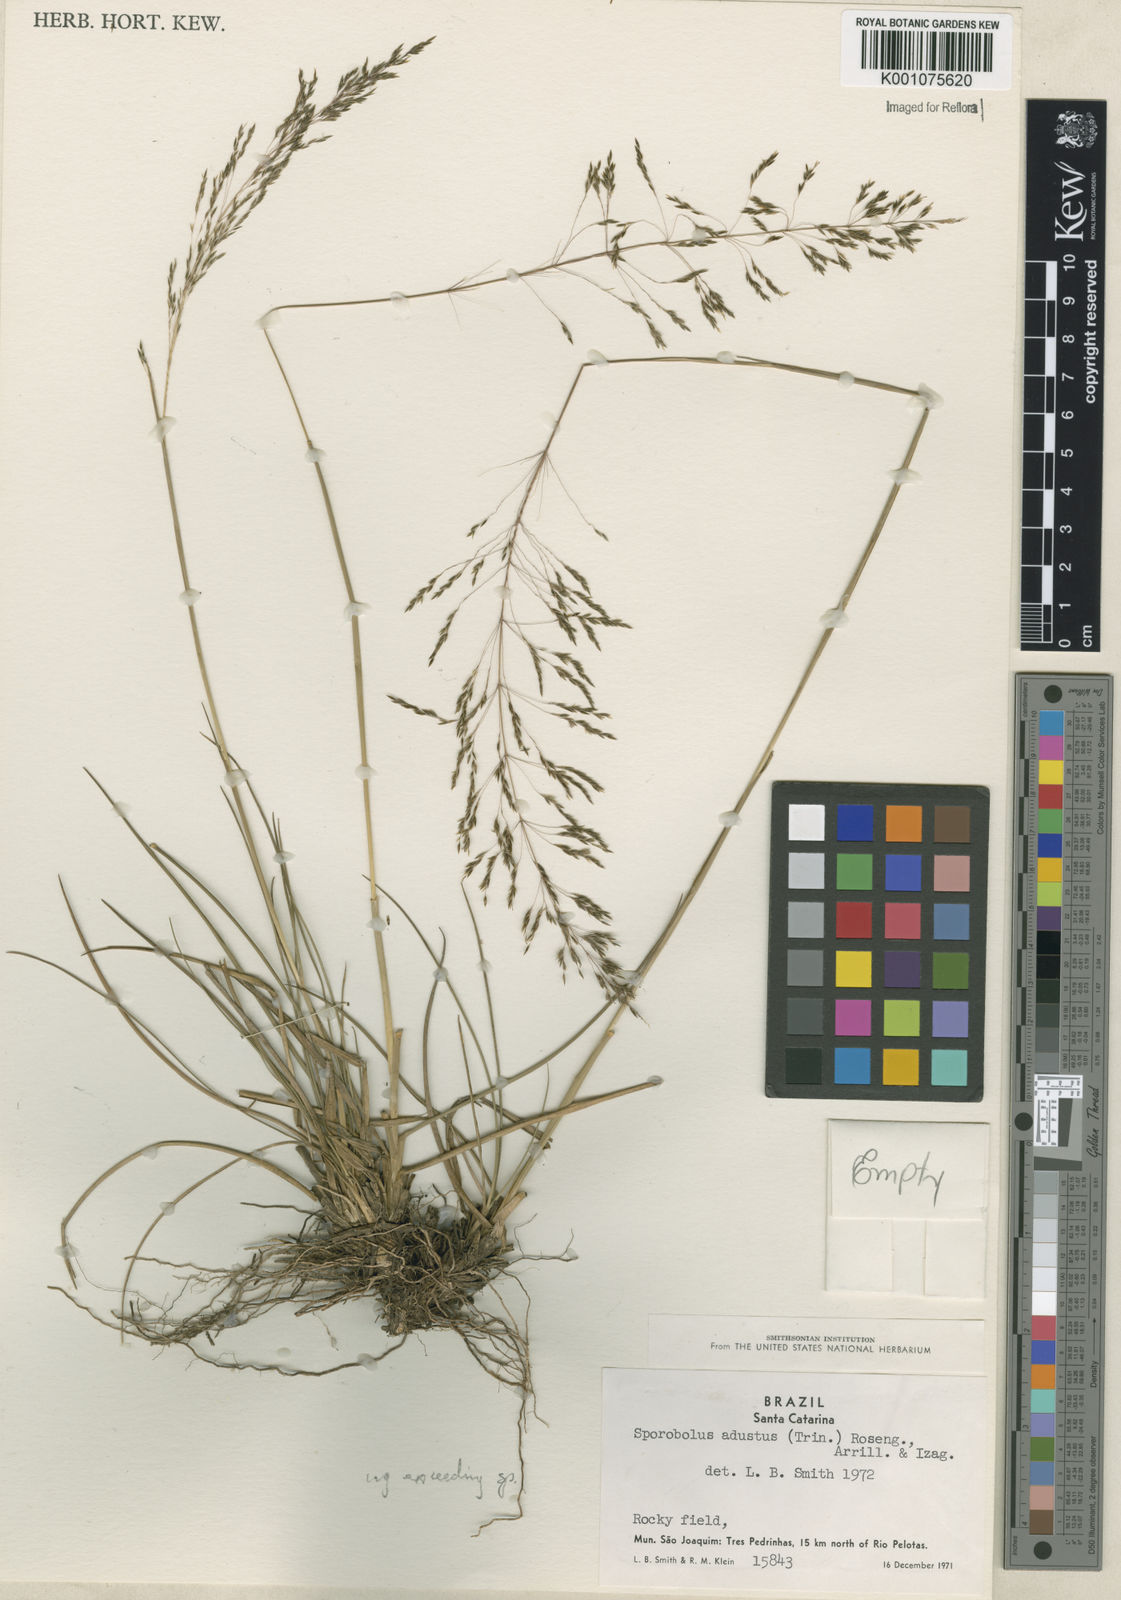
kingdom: Plantae
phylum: Tracheophyta
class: Liliopsida
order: Poales
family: Poaceae
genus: Sporobolus
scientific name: Sporobolus camporum
